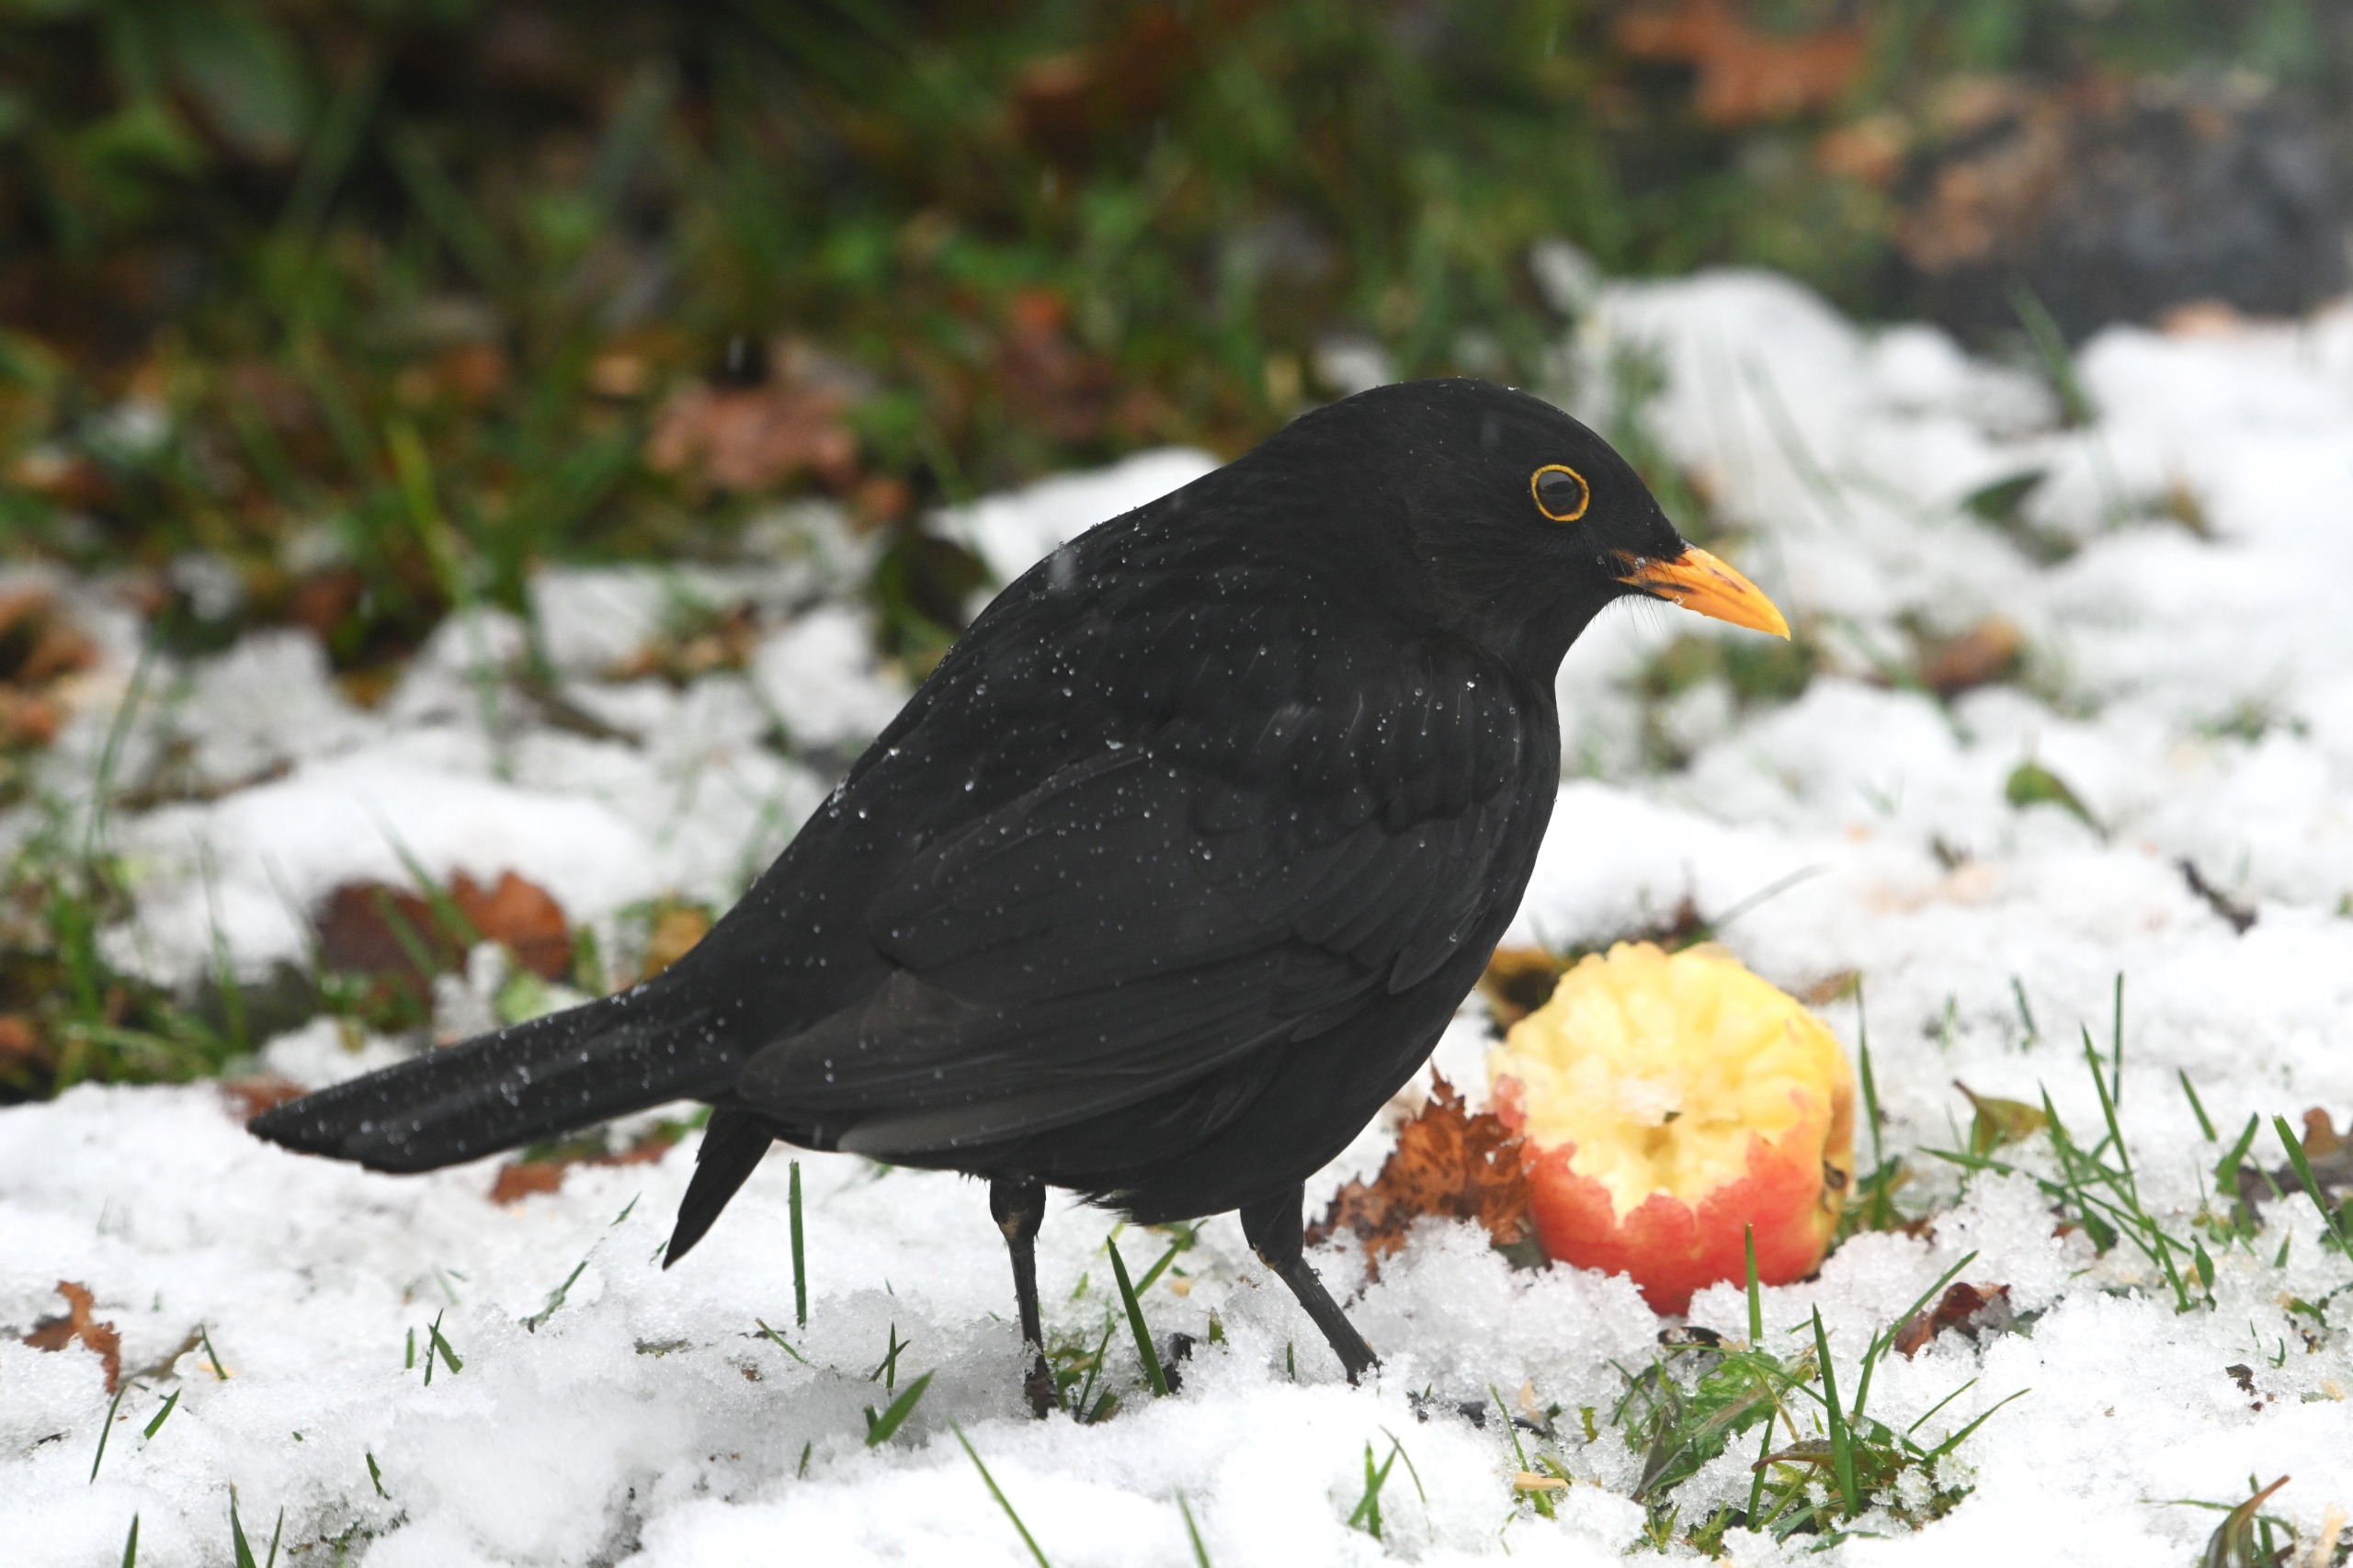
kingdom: Animalia
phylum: Chordata
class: Aves
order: Passeriformes
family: Turdidae
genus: Turdus
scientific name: Turdus merula
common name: Solsort
